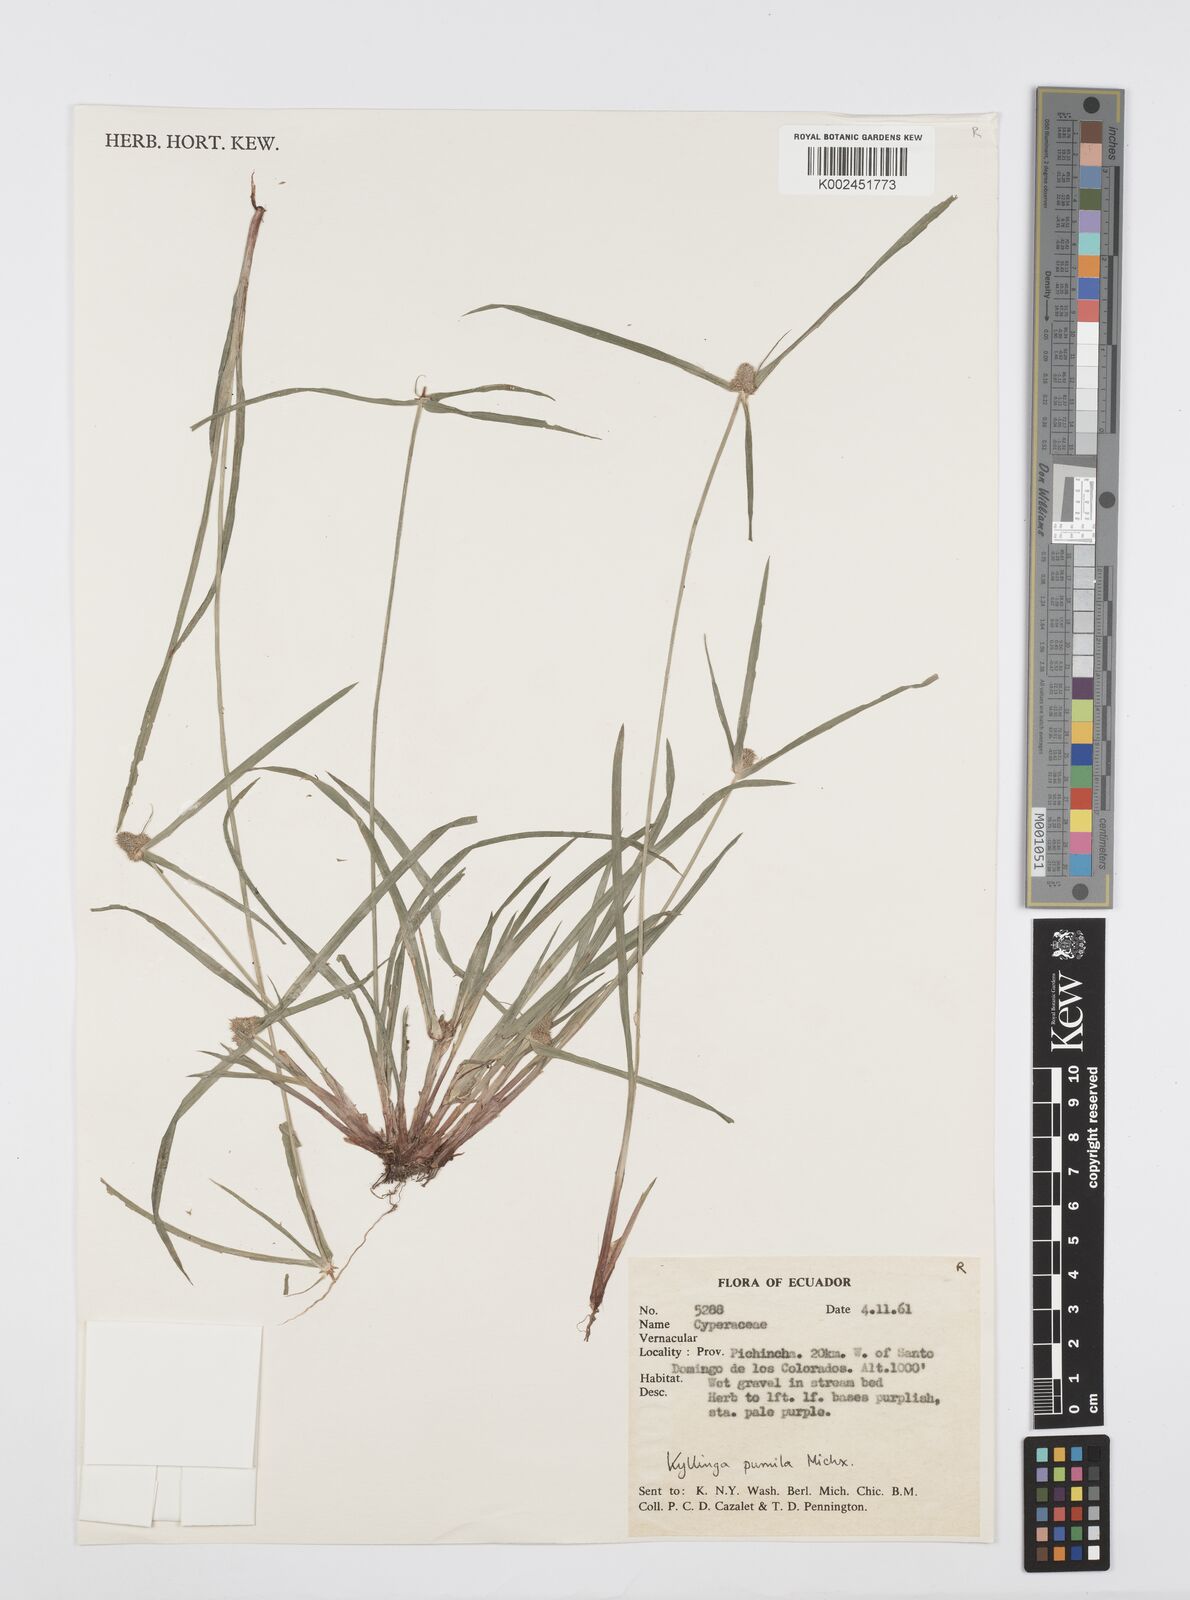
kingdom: Plantae
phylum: Tracheophyta
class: Liliopsida
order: Poales
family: Cyperaceae
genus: Cyperus
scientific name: Cyperus
